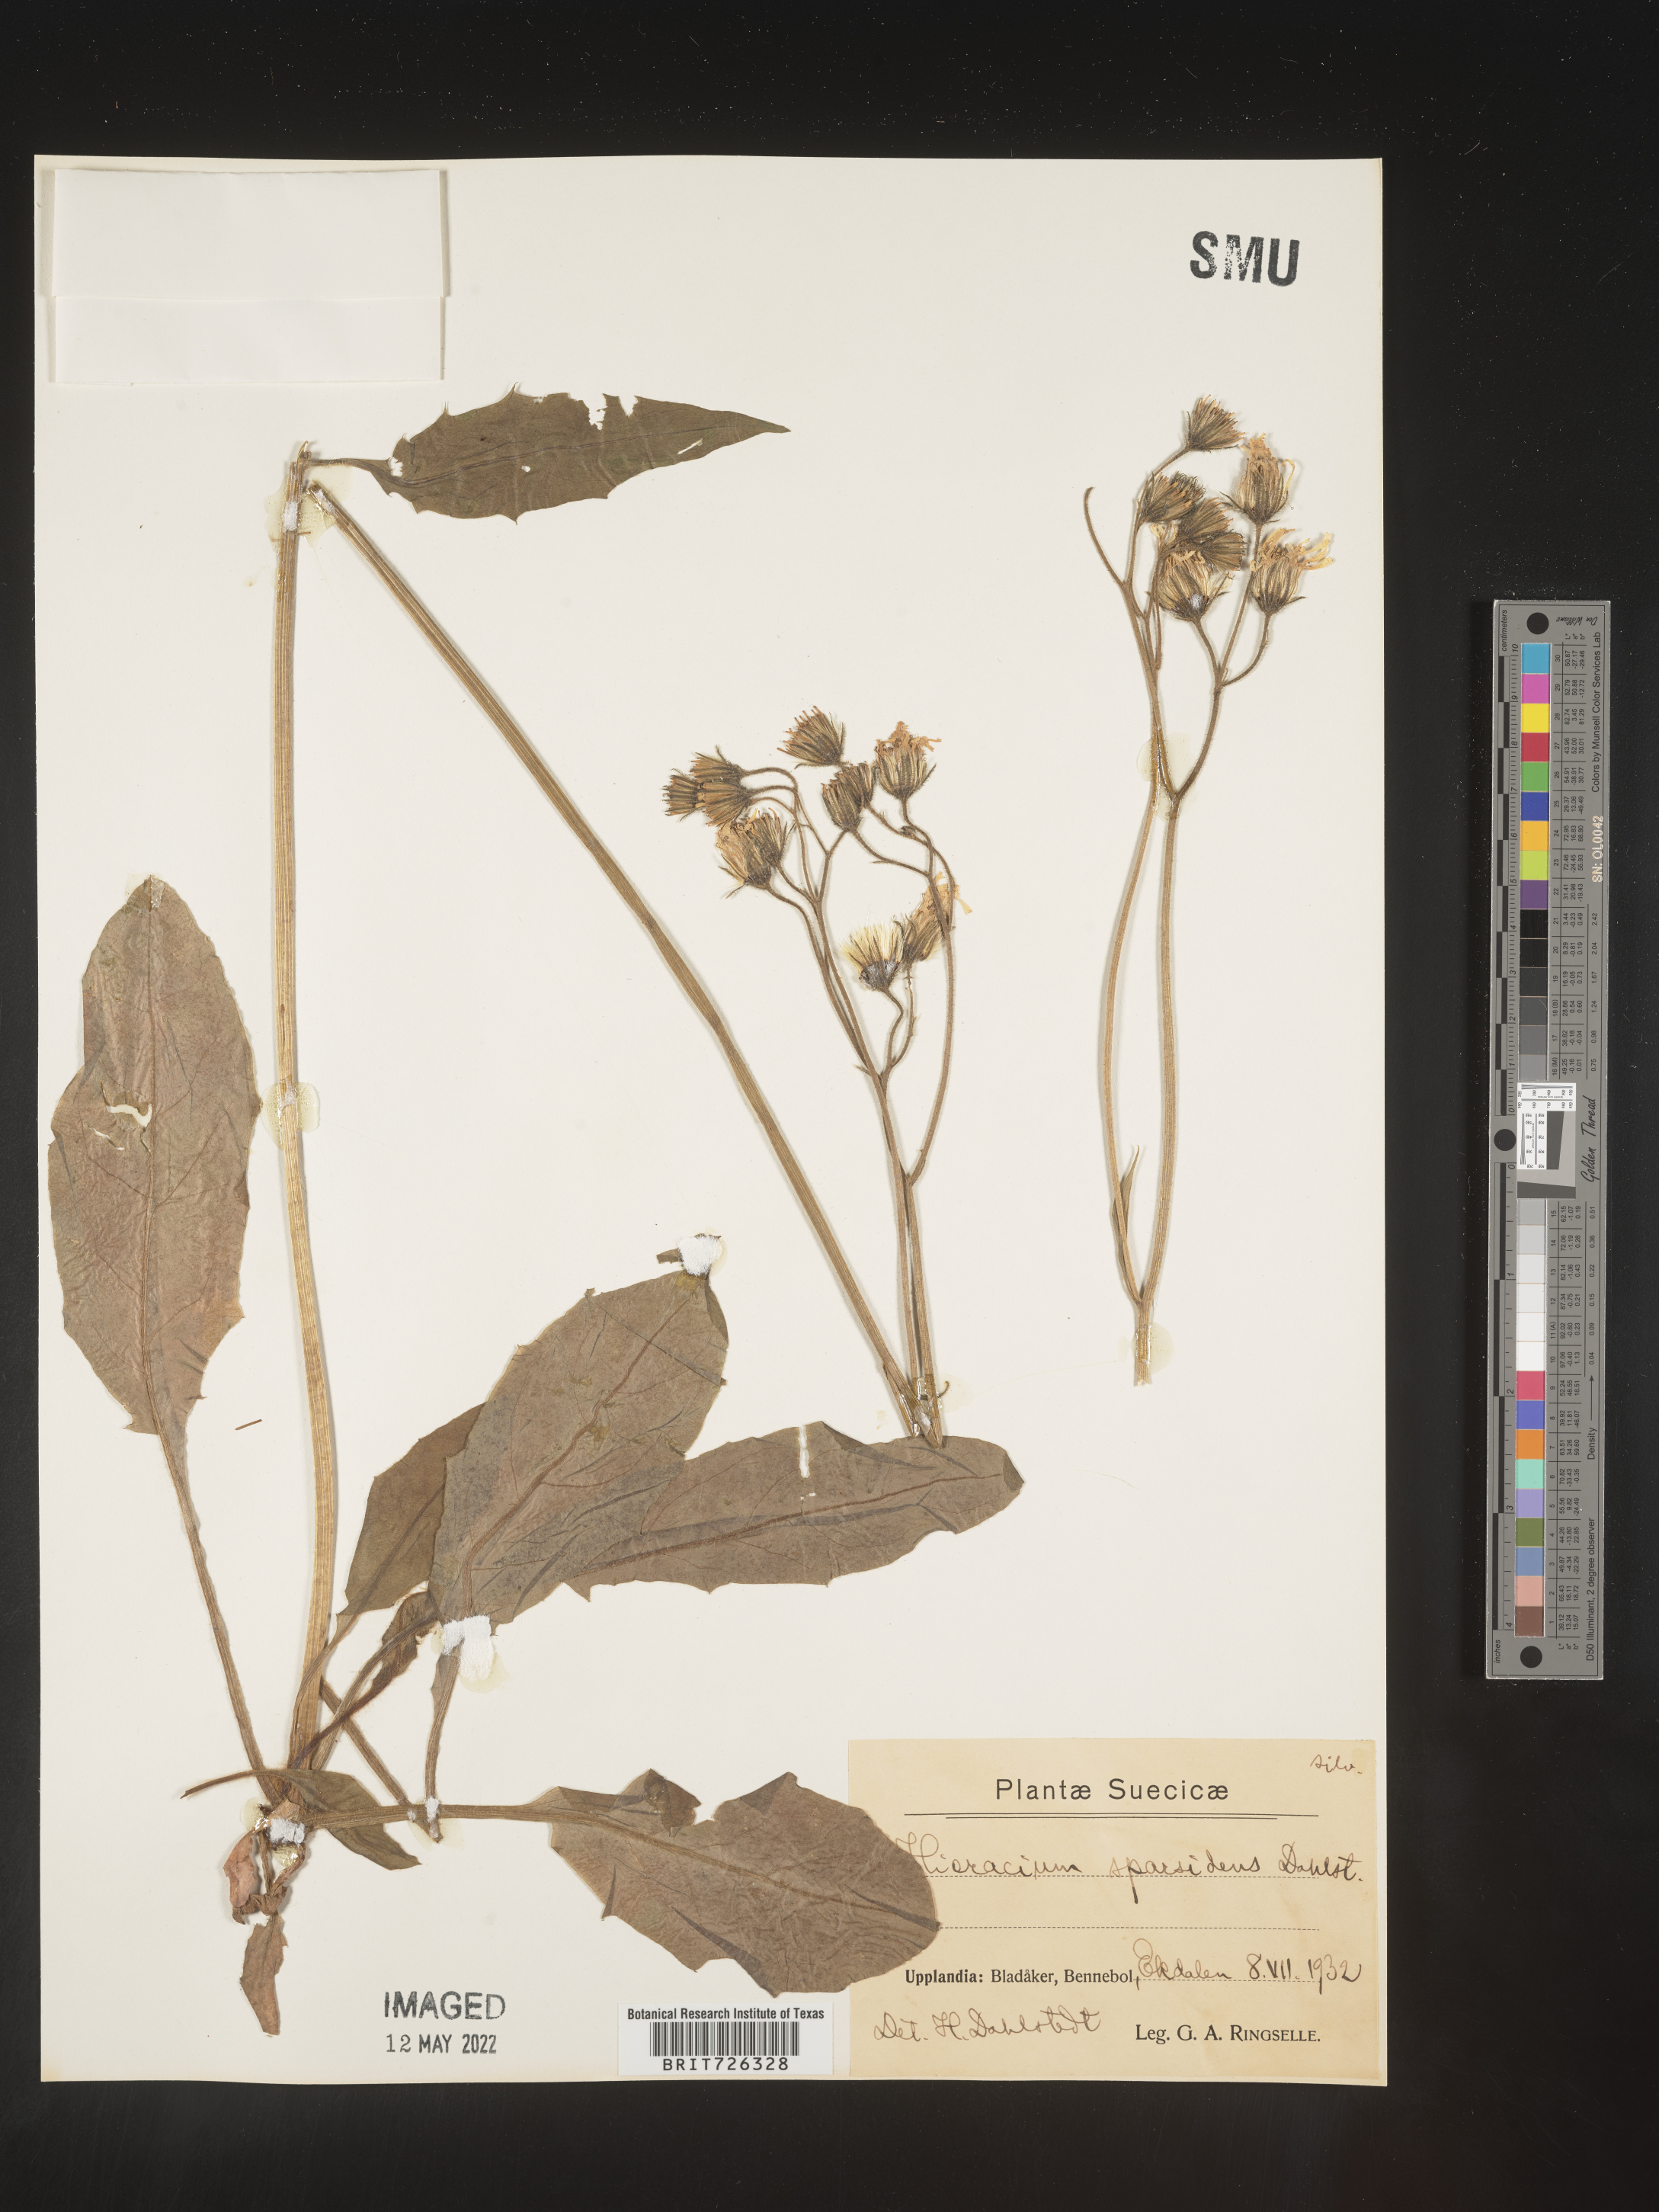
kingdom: Plantae
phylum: Tracheophyta
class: Magnoliopsida
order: Asterales
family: Asteraceae
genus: Hieracium
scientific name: Hieracium
